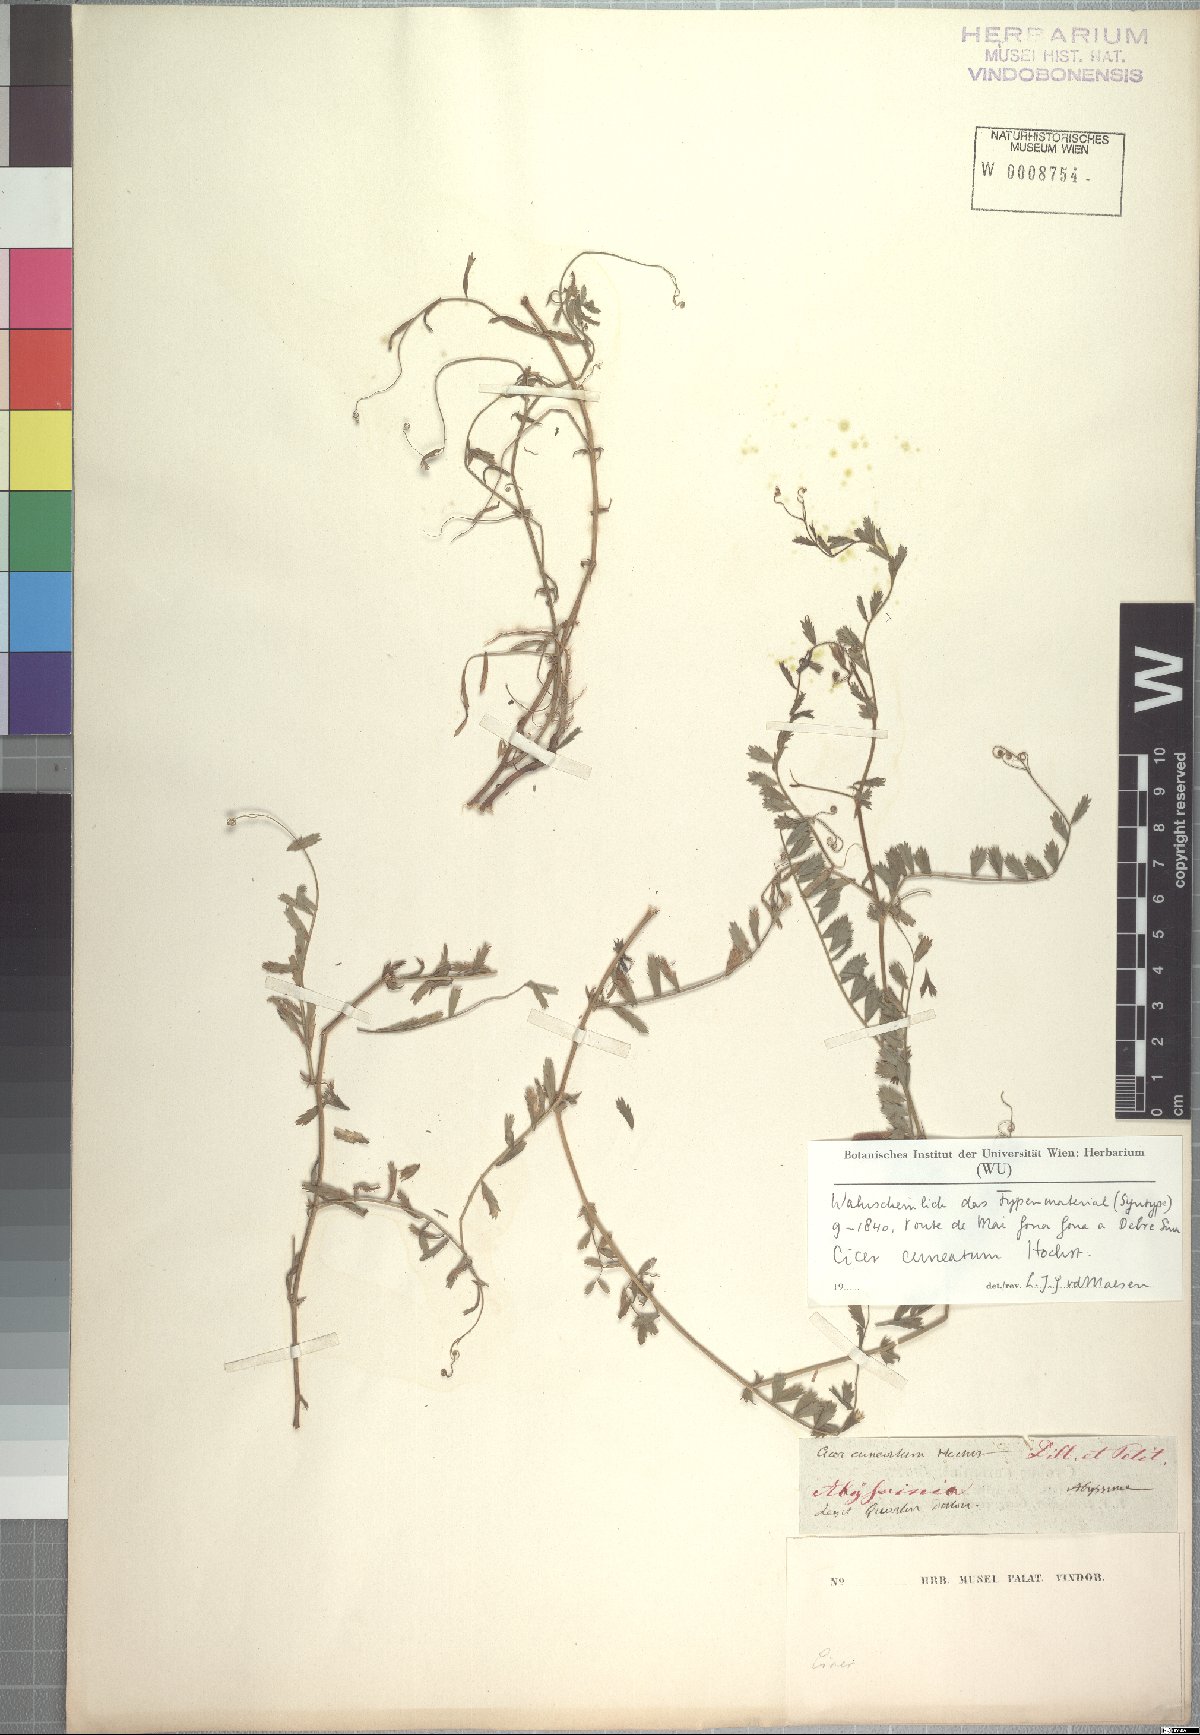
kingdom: Plantae
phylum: Tracheophyta
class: Magnoliopsida
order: Fabales
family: Fabaceae
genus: Cicer
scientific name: Cicer cuneatum
